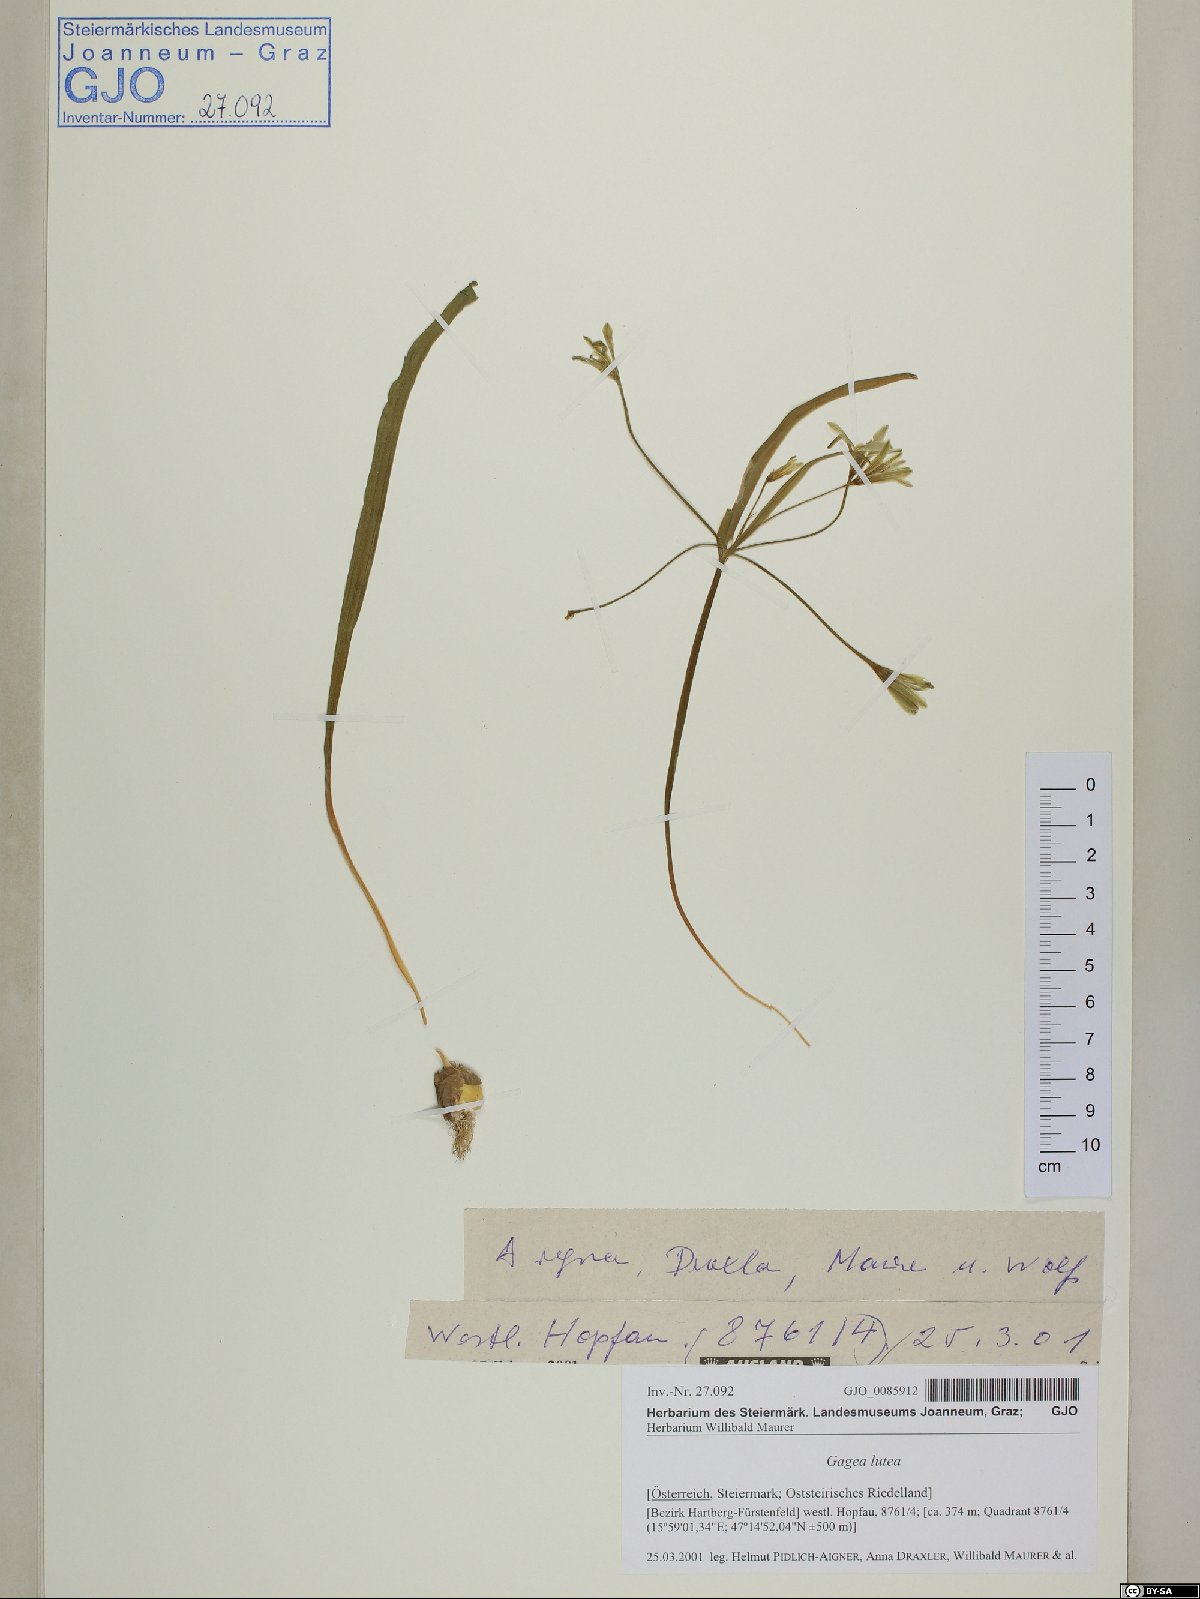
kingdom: Plantae
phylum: Tracheophyta
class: Liliopsida
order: Liliales
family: Liliaceae
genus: Gagea
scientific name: Gagea lutea
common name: Yellow star-of-bethlehem
